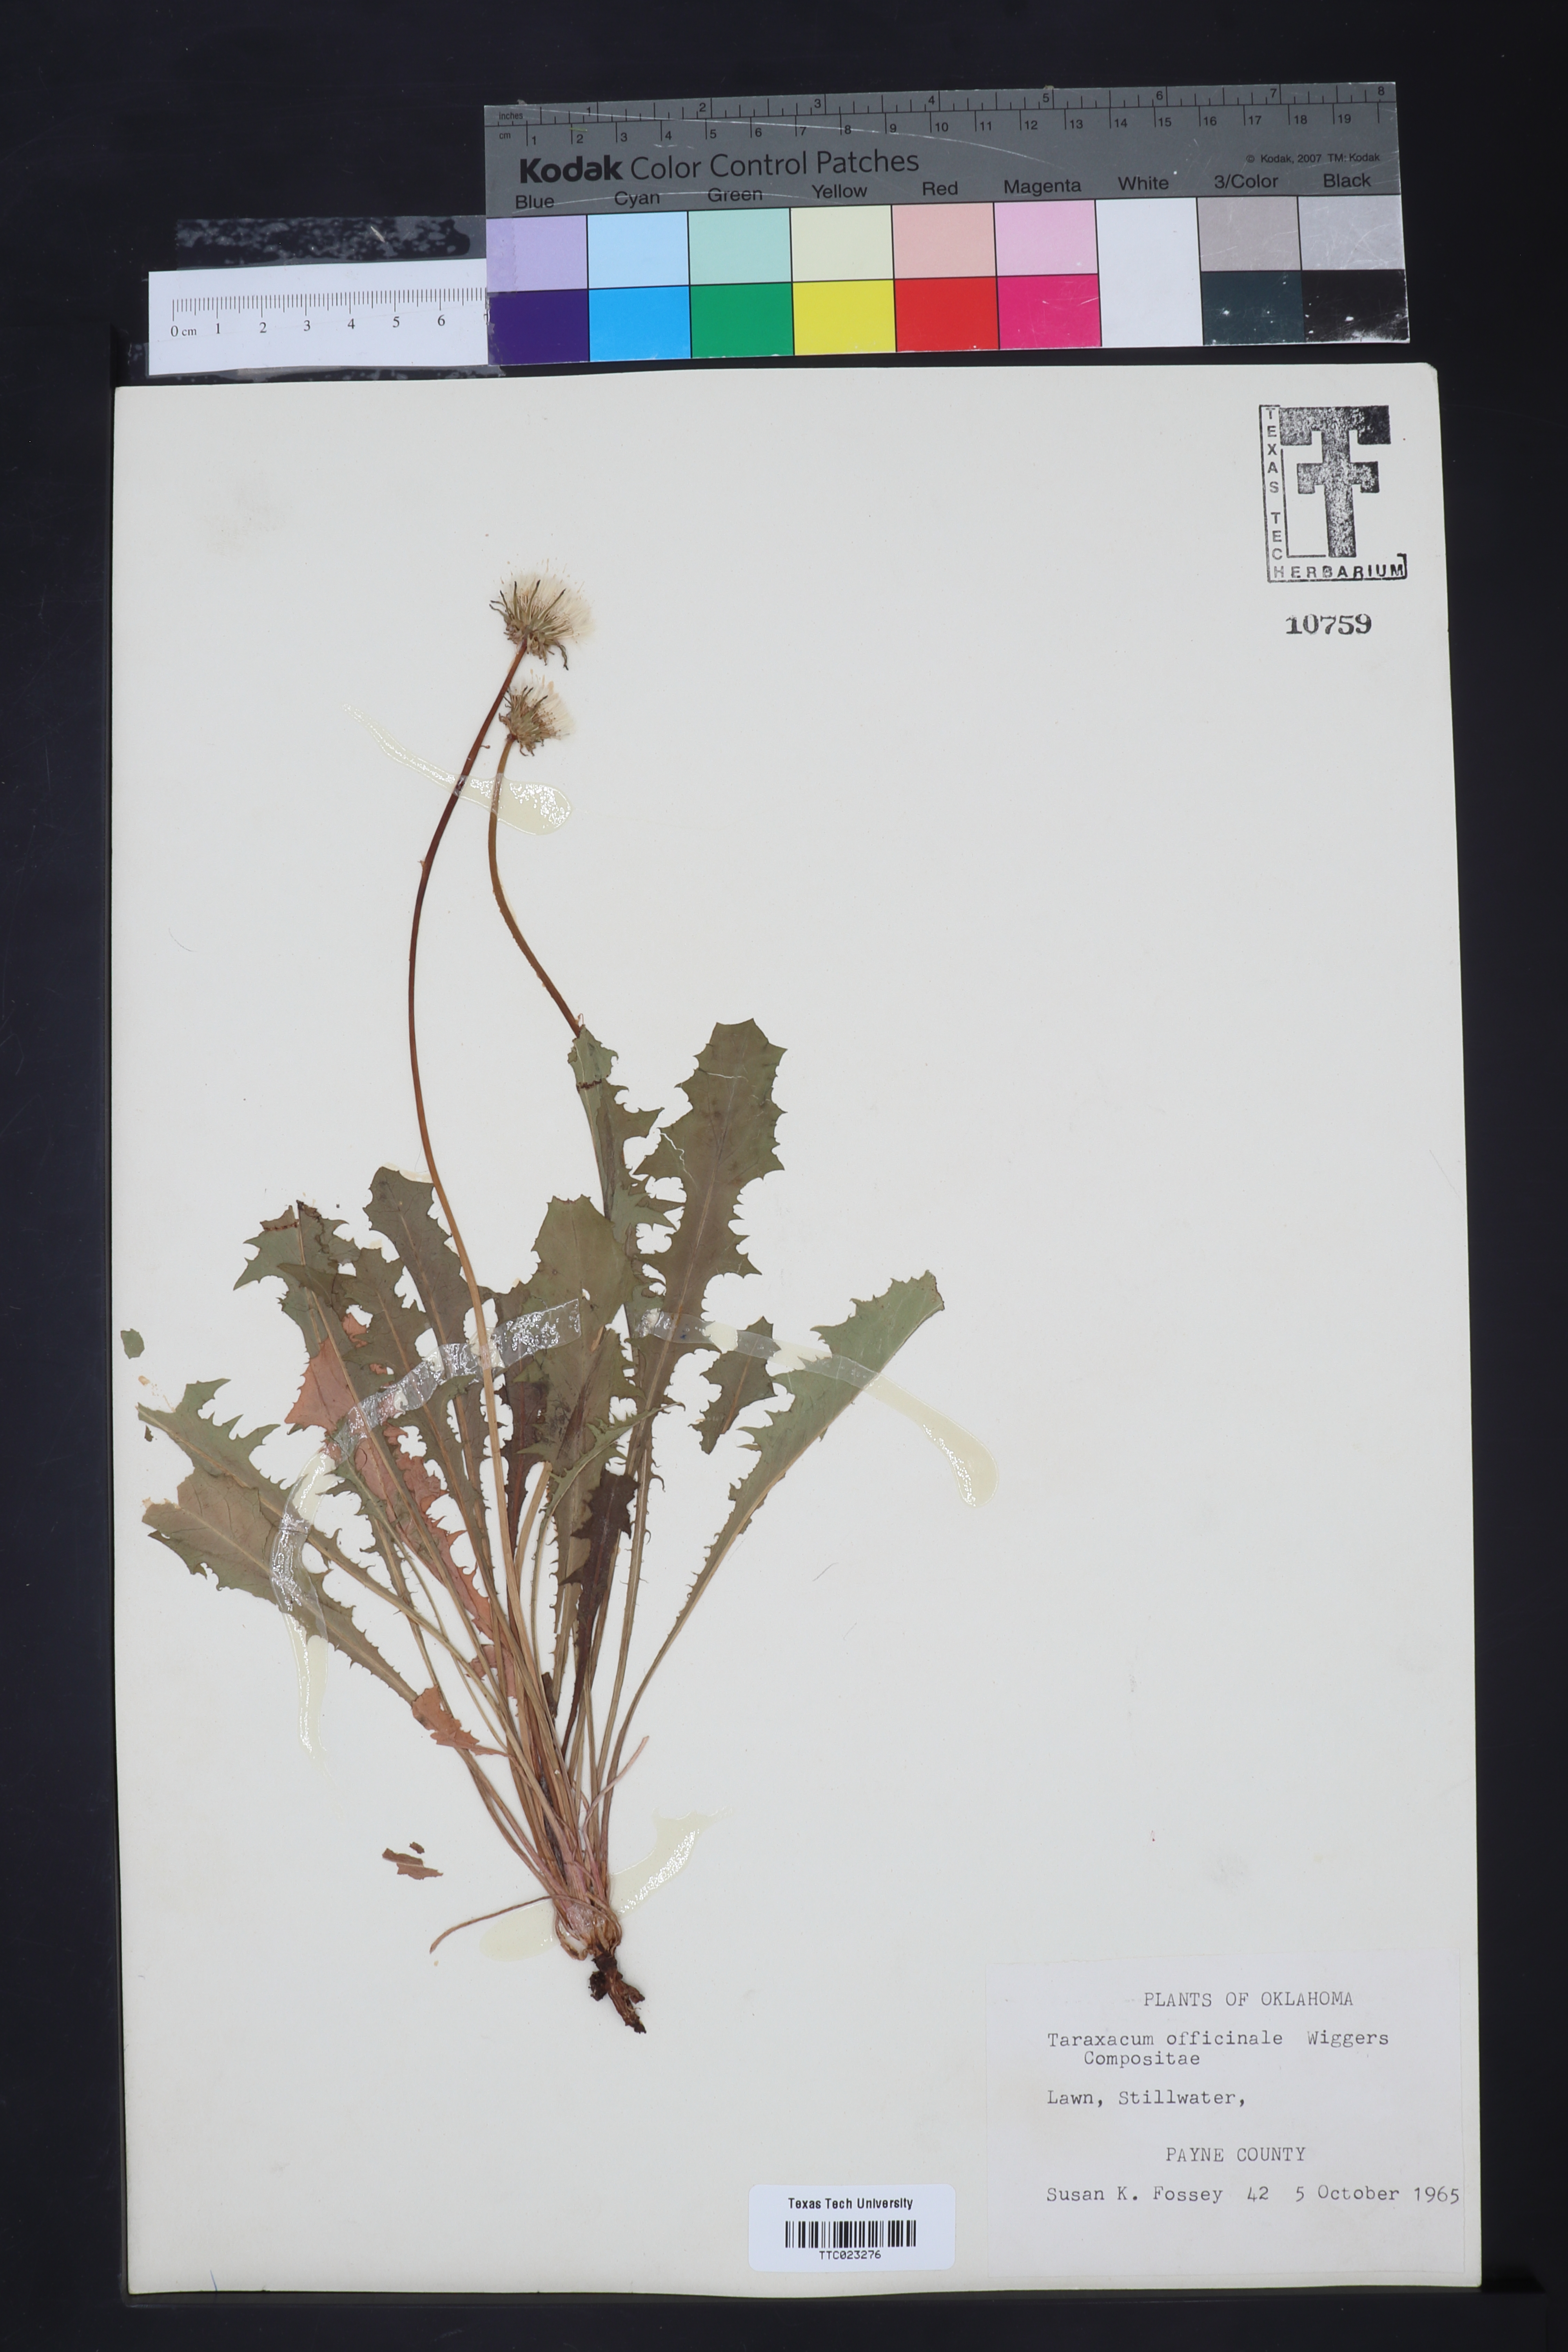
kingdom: Plantae
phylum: Tracheophyta
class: Magnoliopsida
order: Asterales
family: Asteraceae
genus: Taraxacum
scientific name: Taraxacum officinale
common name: Common dandelion
